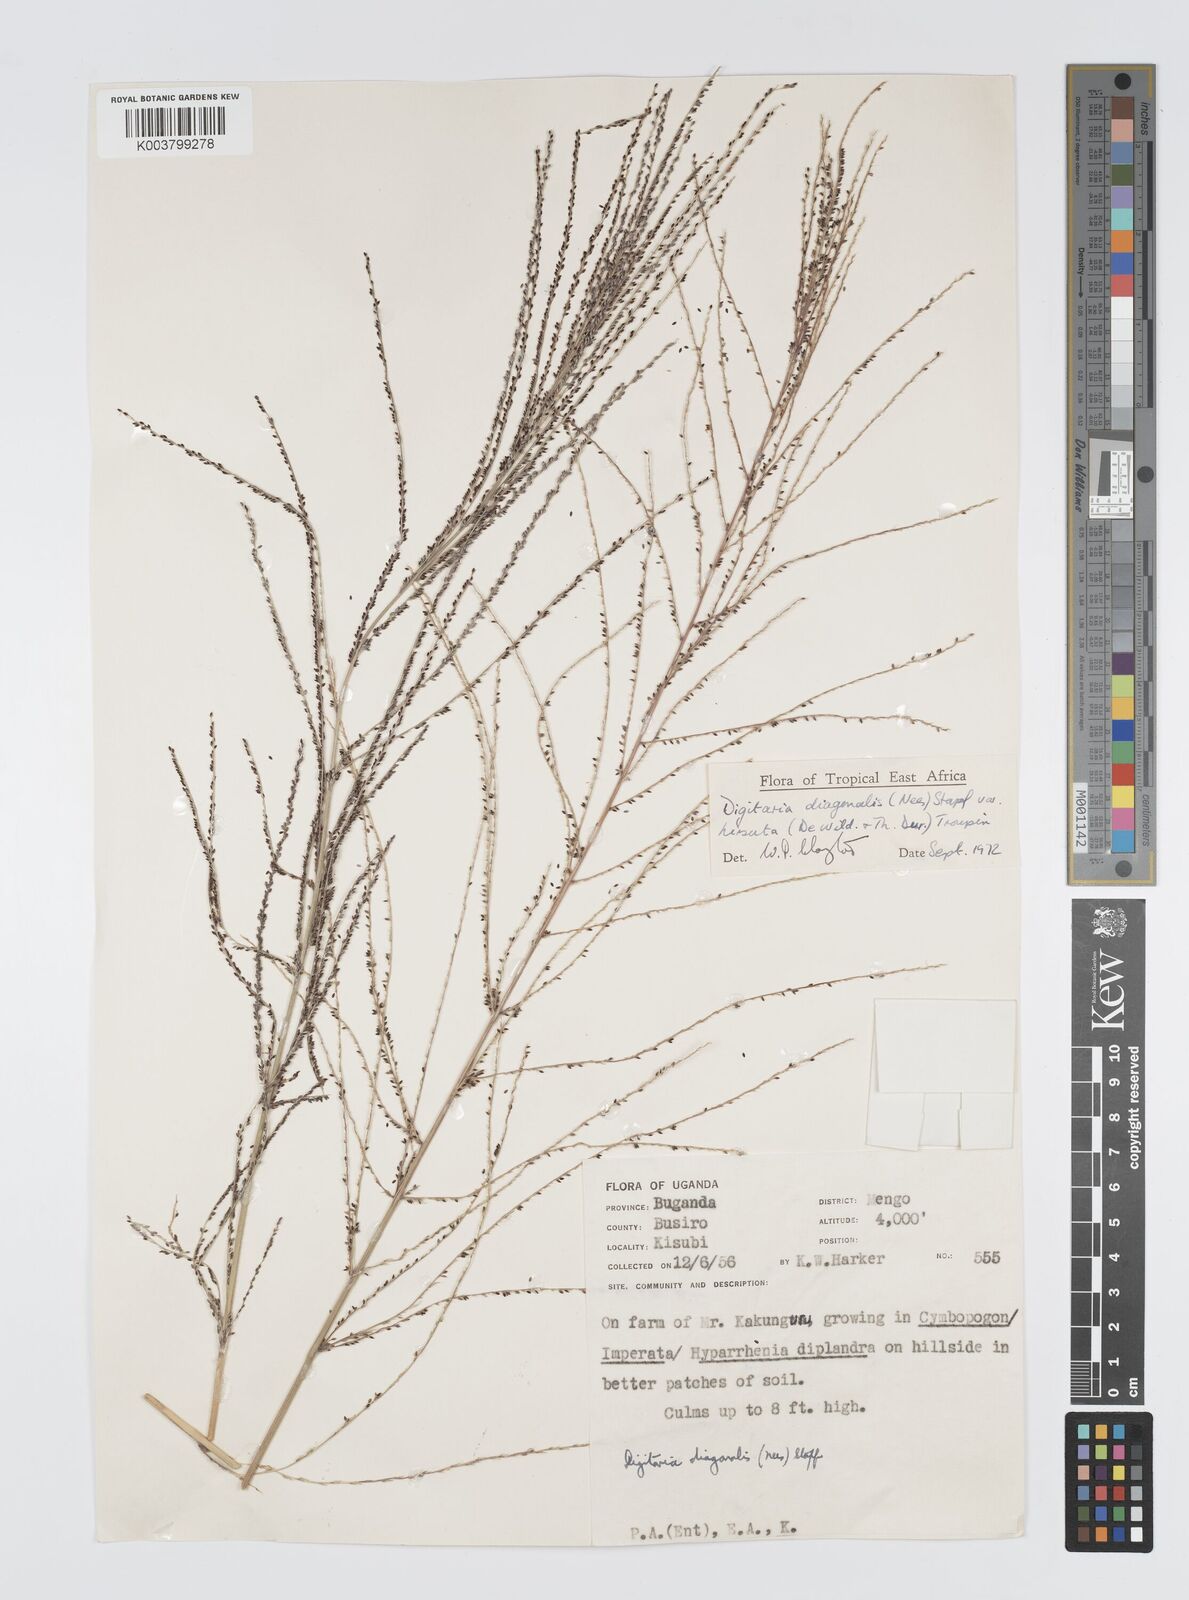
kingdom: Plantae
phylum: Tracheophyta
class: Liliopsida
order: Poales
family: Poaceae
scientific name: Poaceae
